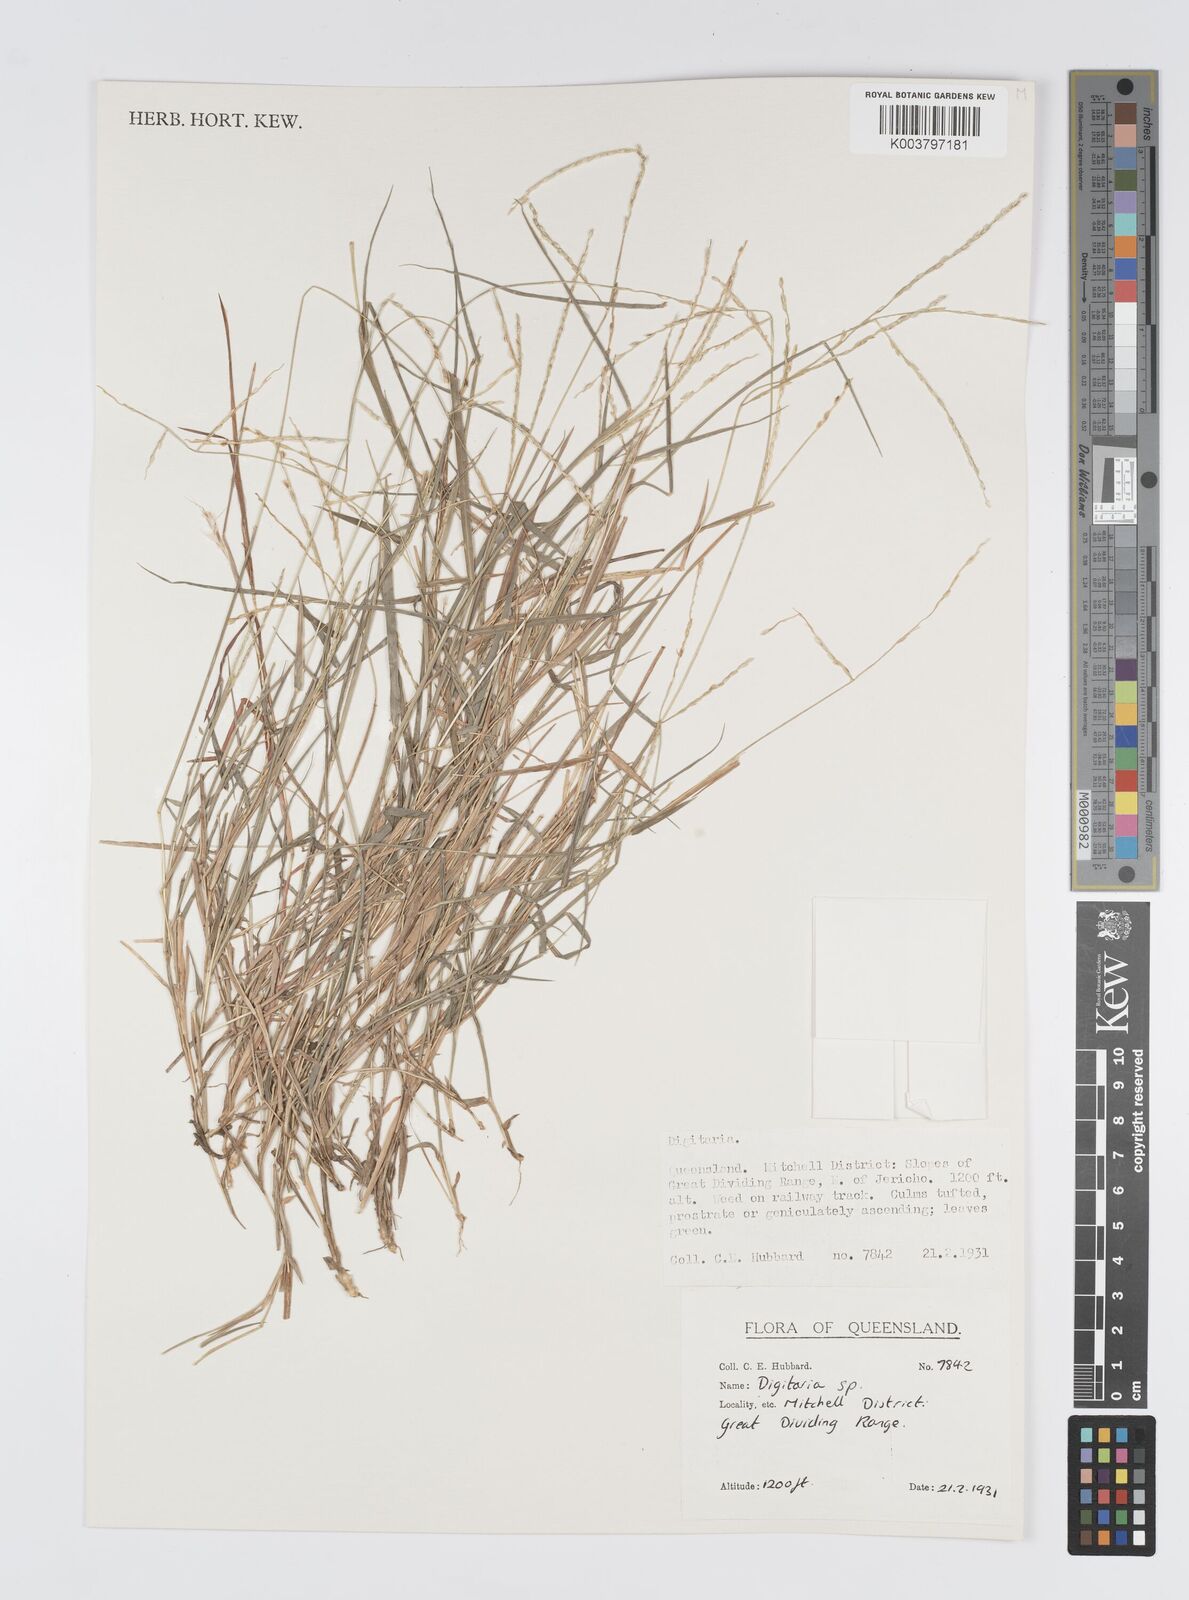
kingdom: Plantae
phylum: Tracheophyta
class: Liliopsida
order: Poales
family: Poaceae
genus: Digitaria
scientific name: Digitaria spec
